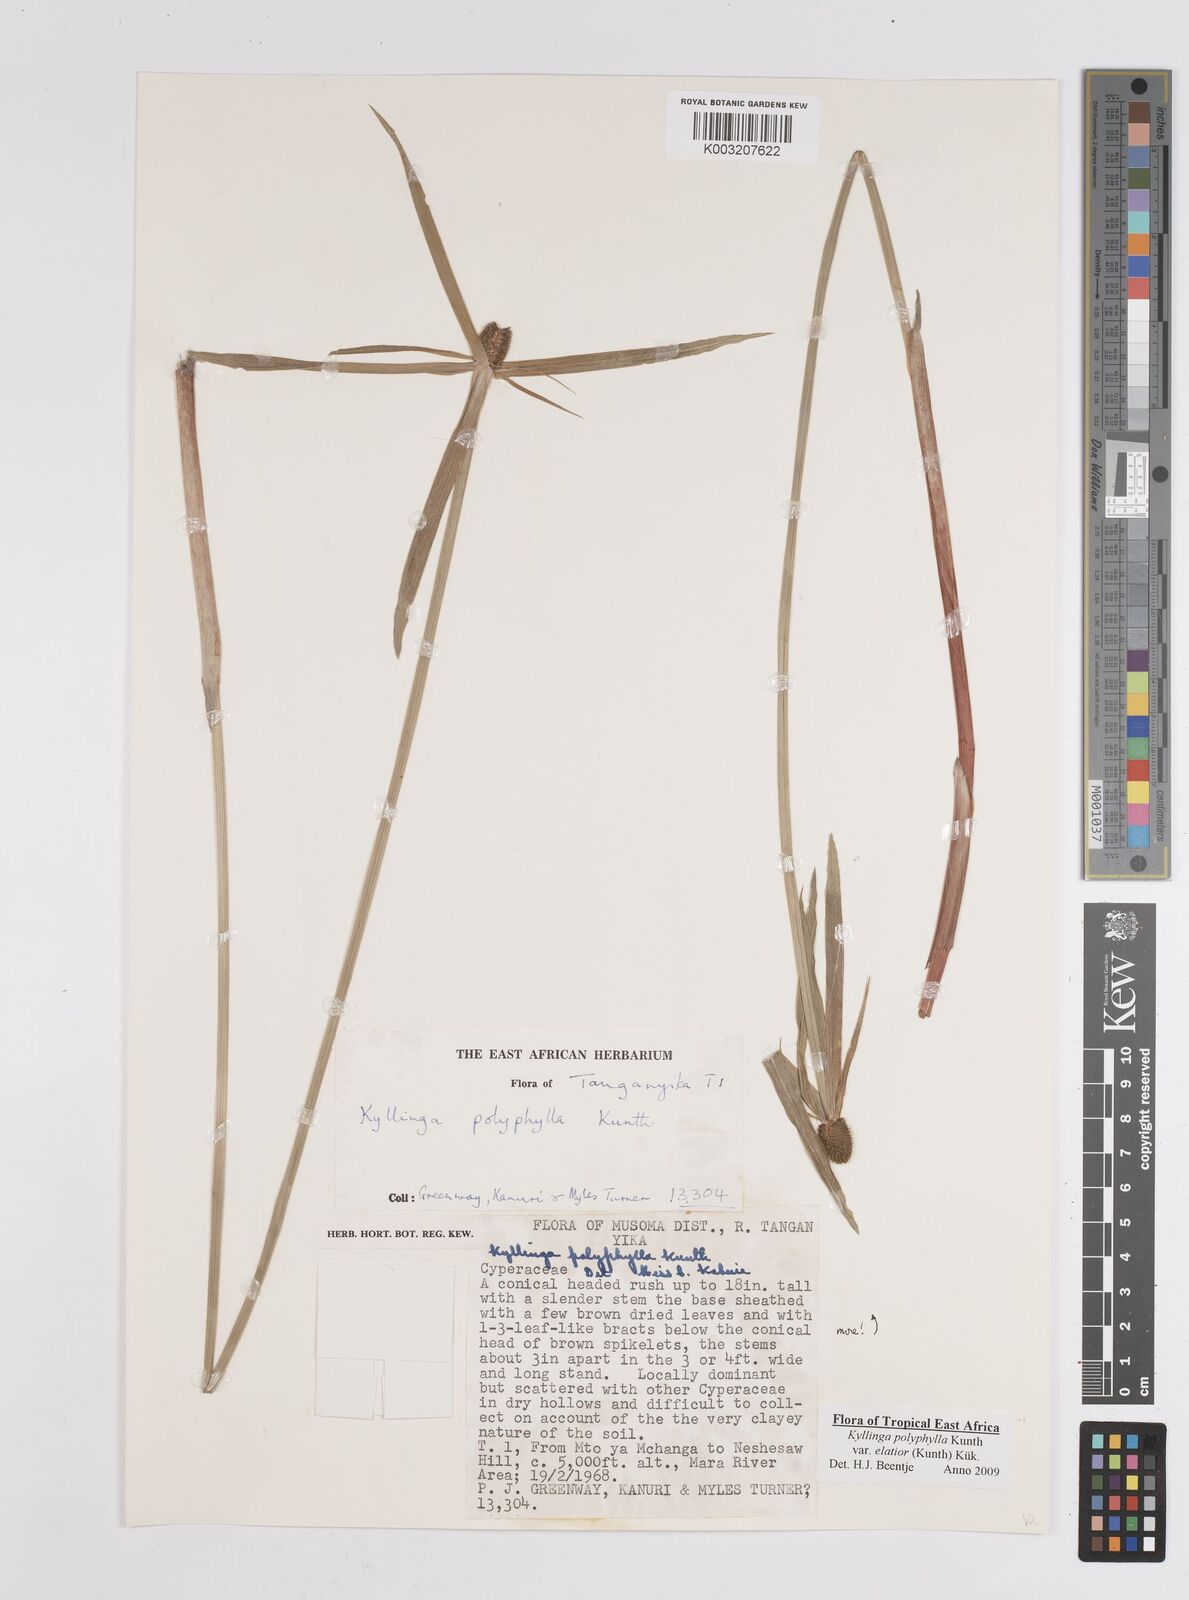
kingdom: Plantae
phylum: Tracheophyta
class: Liliopsida
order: Poales
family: Cyperaceae
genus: Cyperus
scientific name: Cyperus
